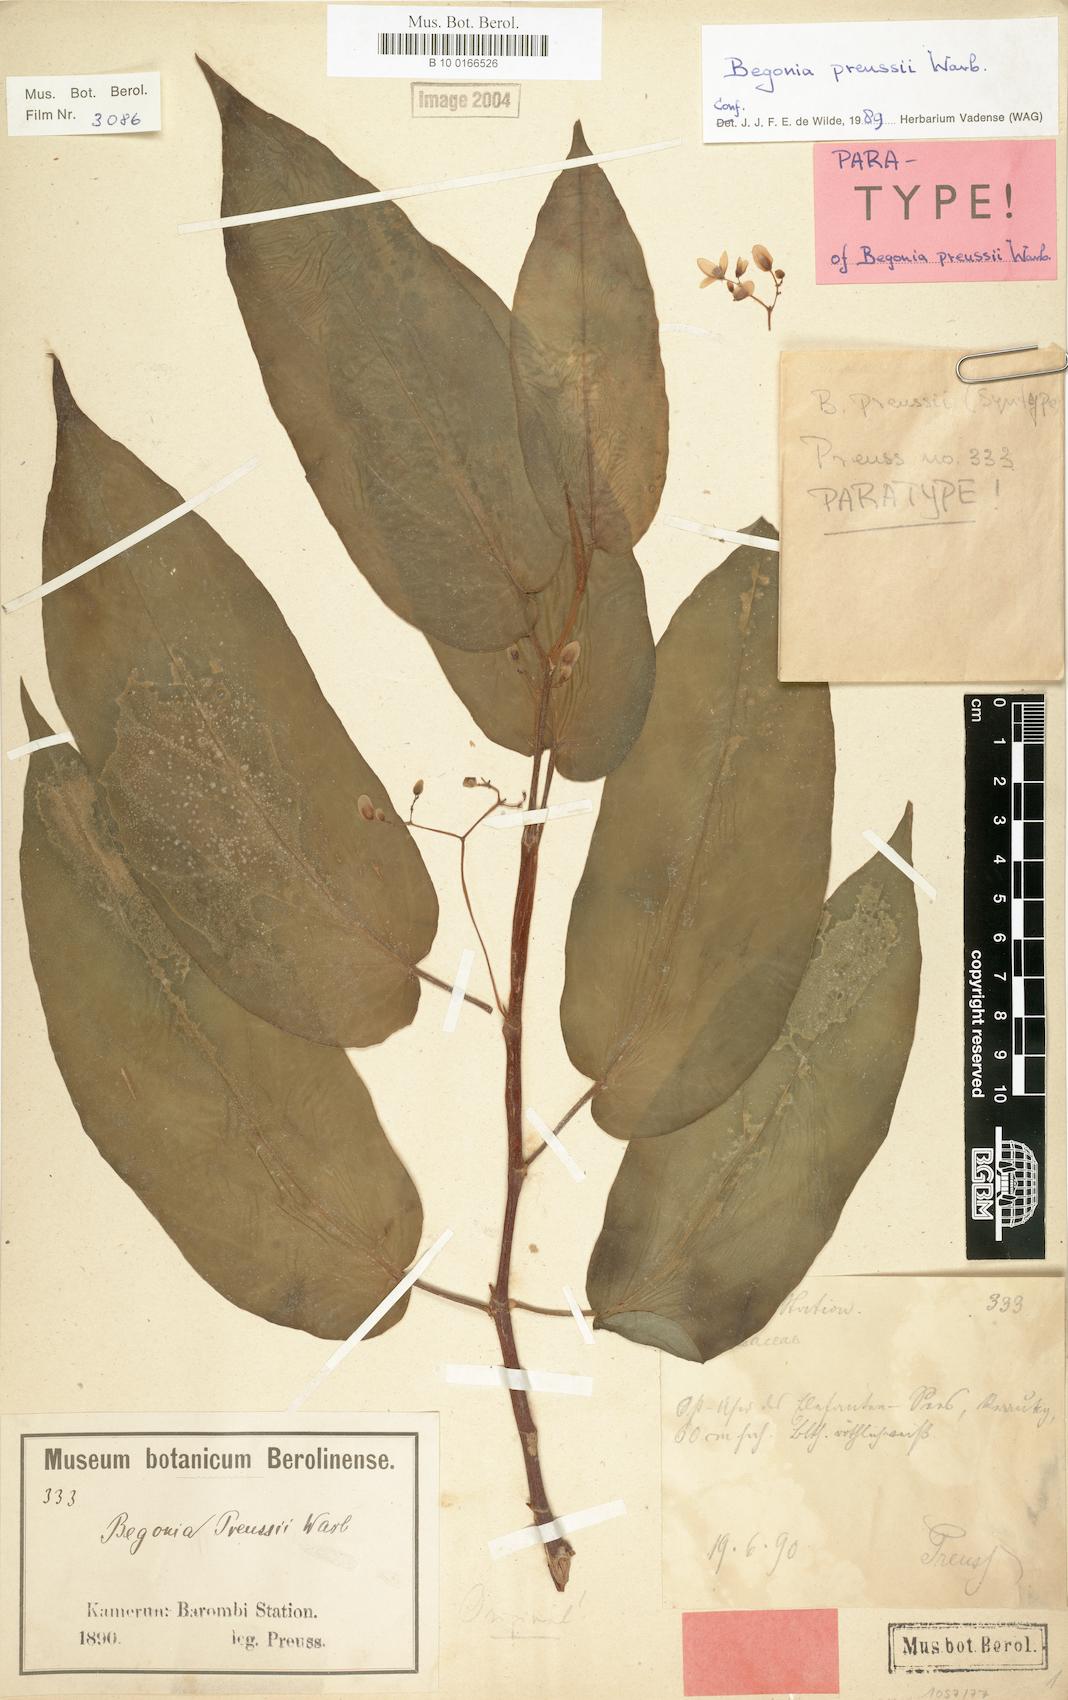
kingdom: Plantae
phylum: Tracheophyta
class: Magnoliopsida
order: Cucurbitales
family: Begoniaceae
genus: Begonia
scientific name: Begonia preussii
